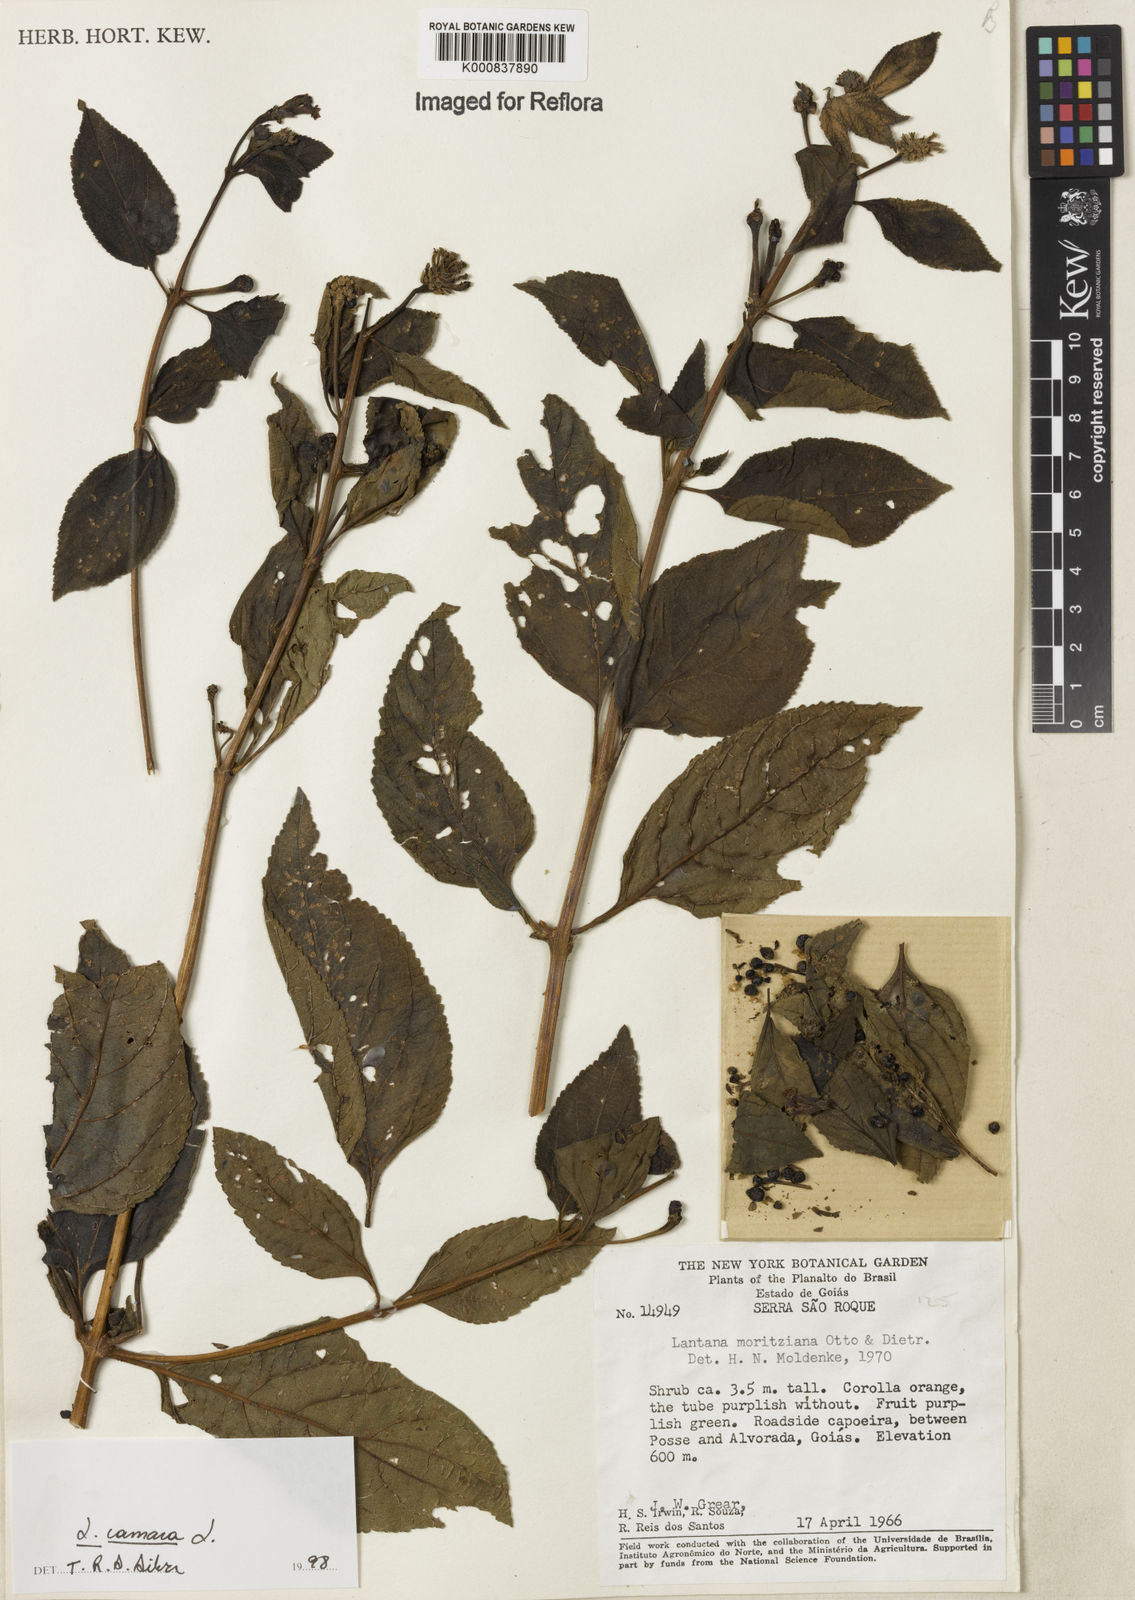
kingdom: Plantae
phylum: Tracheophyta
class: Magnoliopsida
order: Lamiales
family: Verbenaceae
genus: Lantana
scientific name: Lantana camara
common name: Lantana
